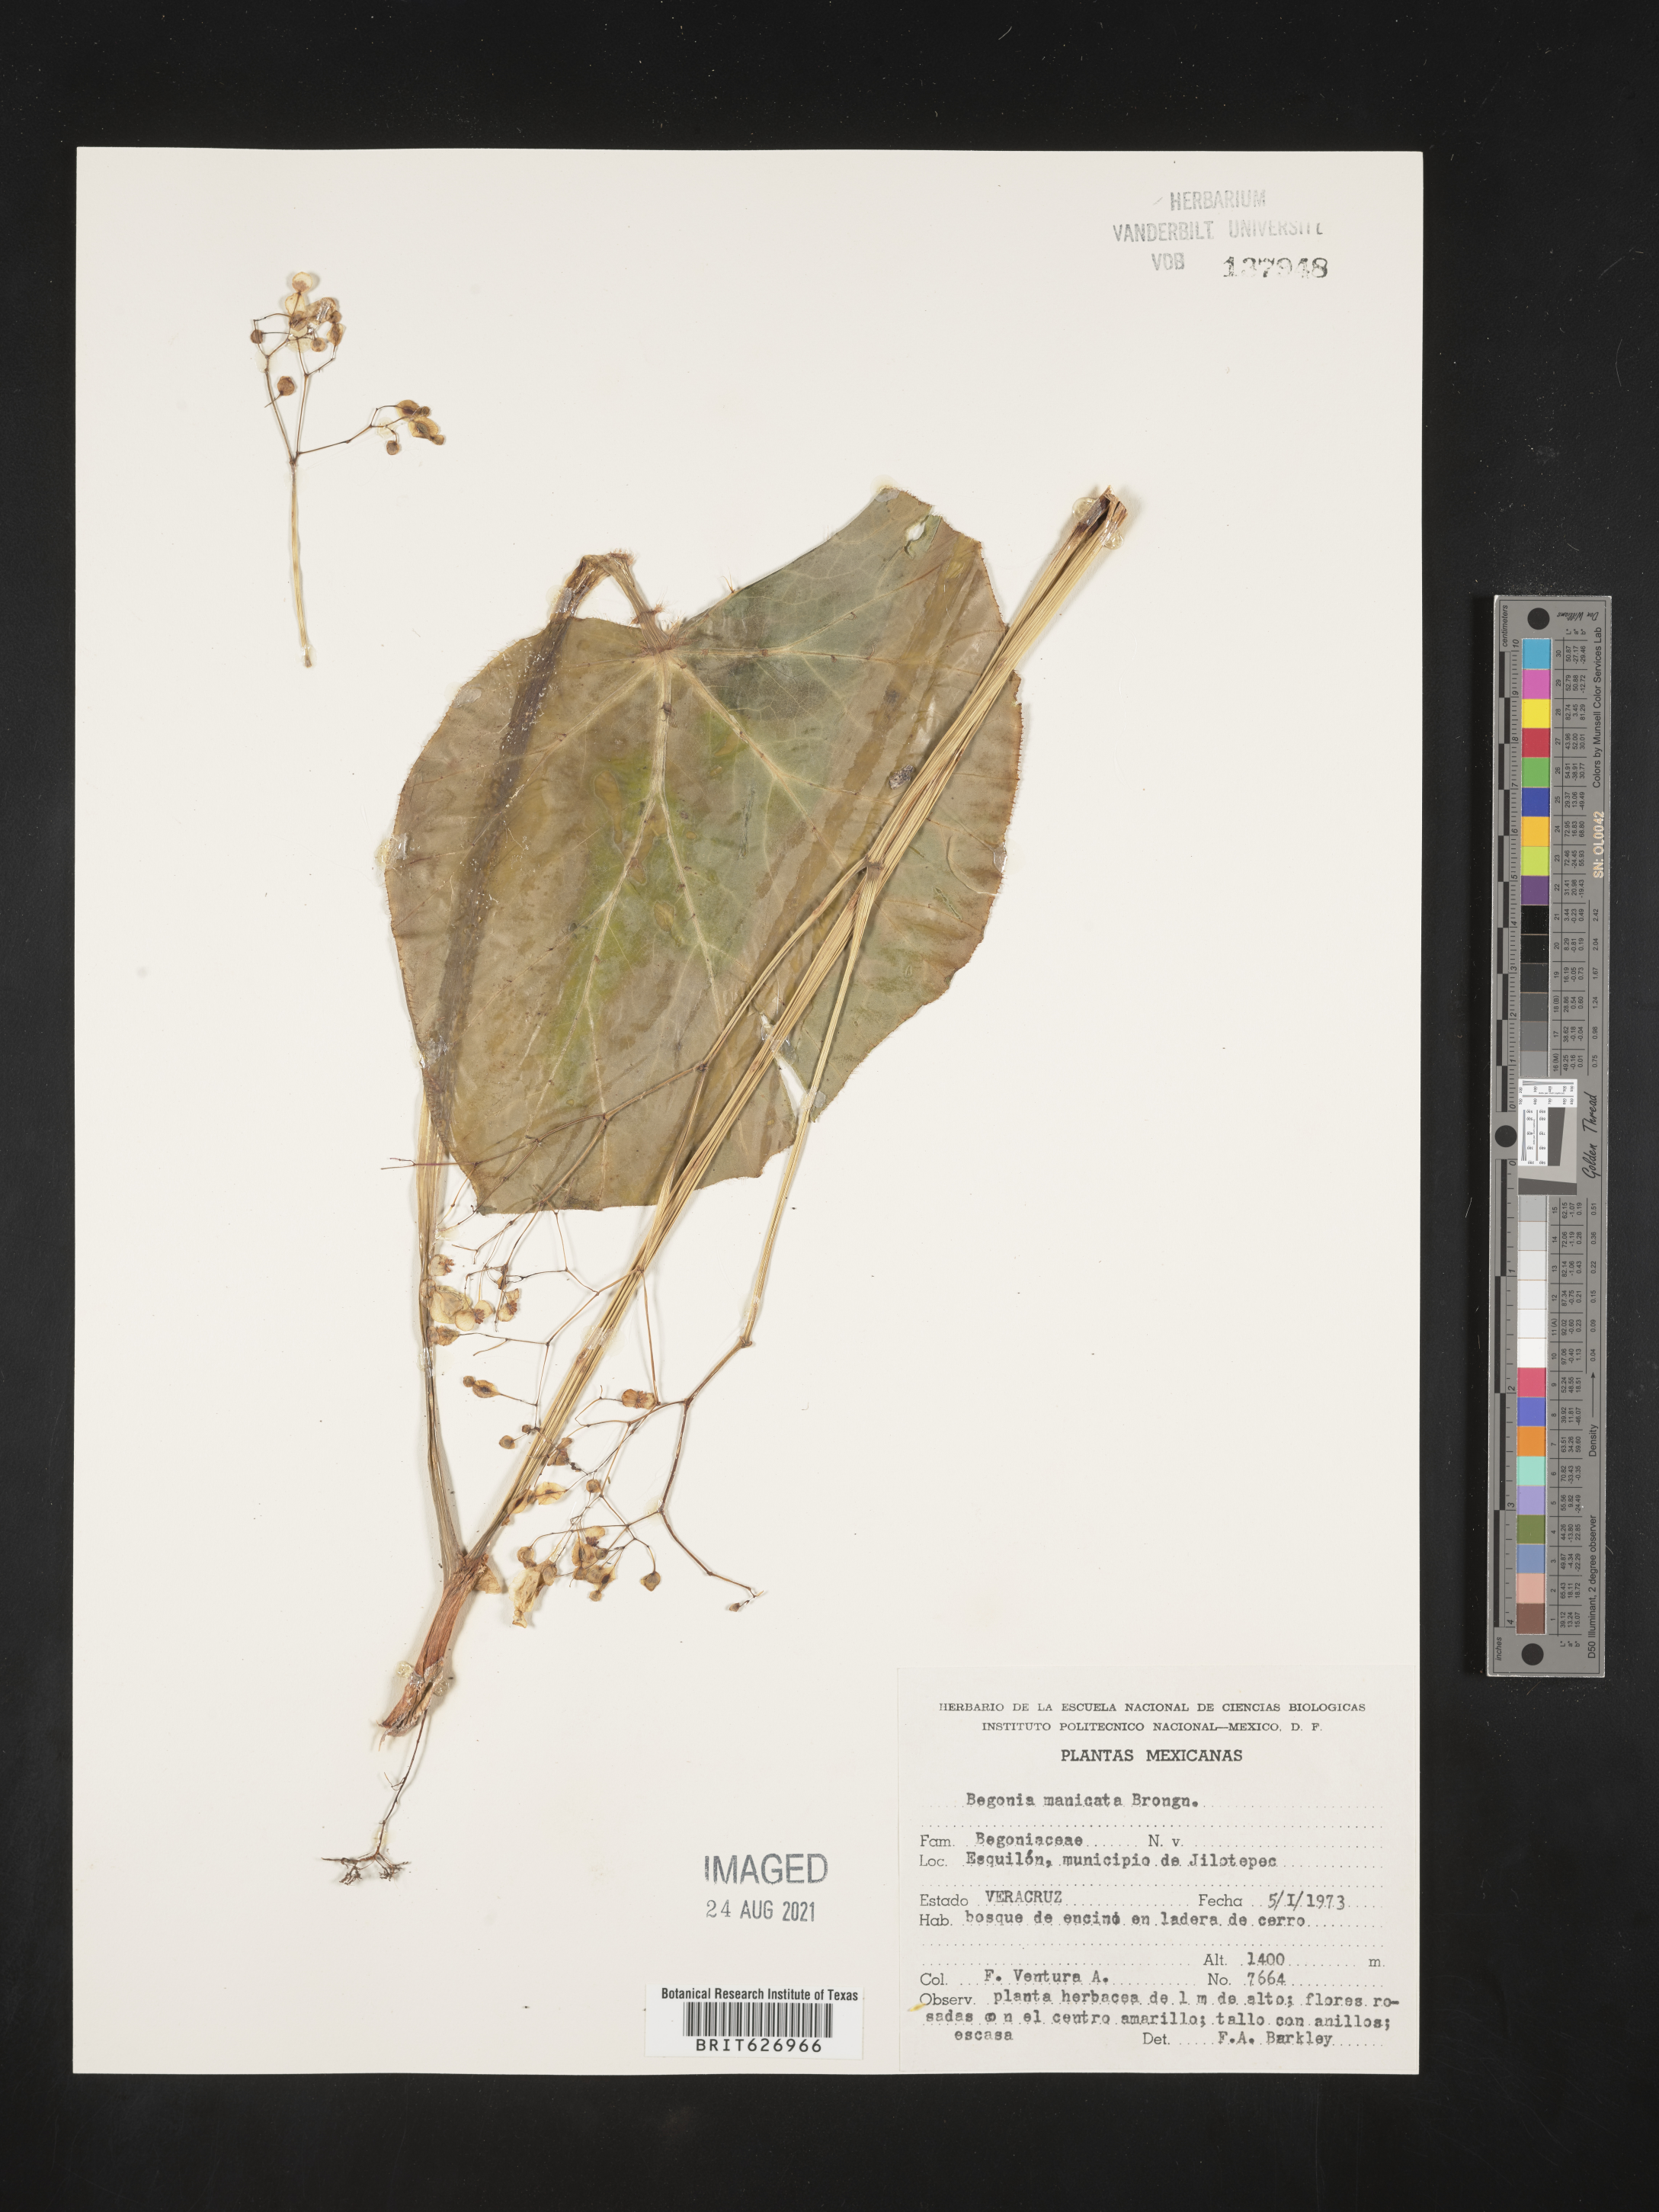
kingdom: Plantae
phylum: Tracheophyta
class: Magnoliopsida
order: Cucurbitales
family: Begoniaceae
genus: Begonia
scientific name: Begonia
